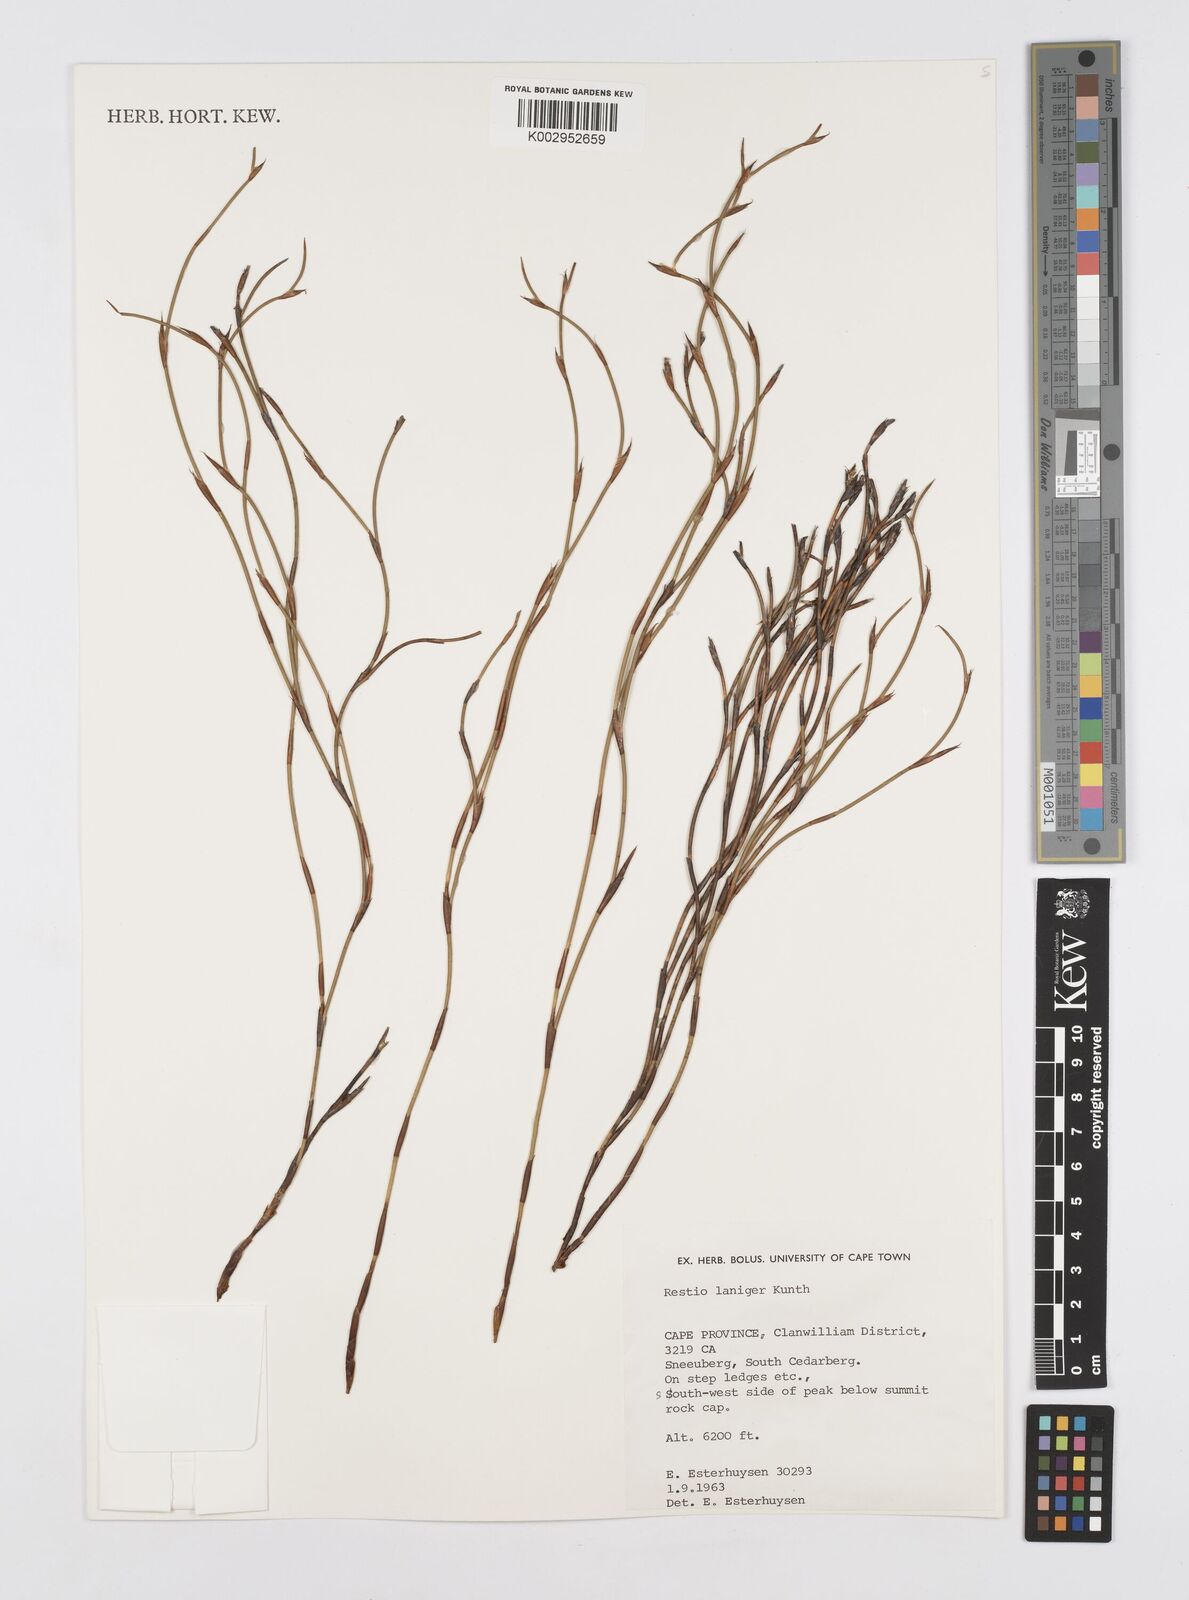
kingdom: Plantae
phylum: Tracheophyta
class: Liliopsida
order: Poales
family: Restionaceae
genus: Restio
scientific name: Restio laniger
